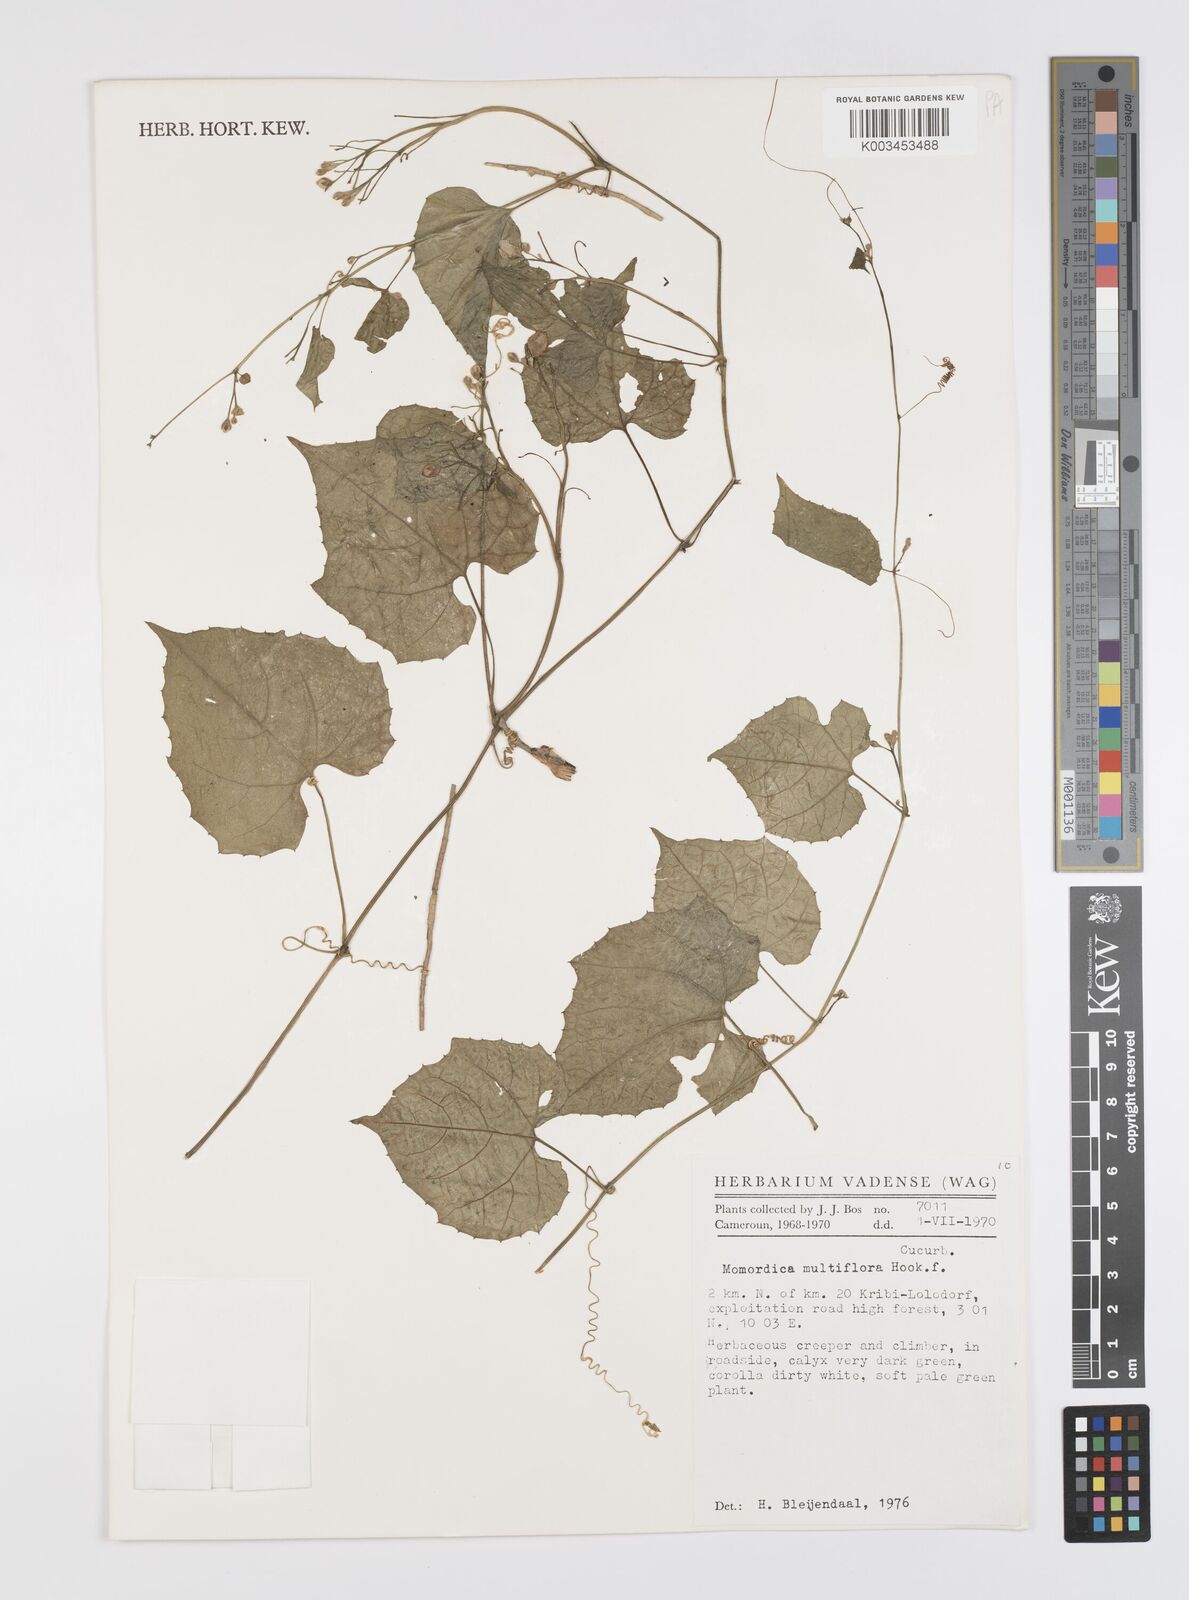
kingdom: Plantae
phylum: Tracheophyta
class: Magnoliopsida
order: Cucurbitales
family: Cucurbitaceae
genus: Momordica
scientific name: Momordica multiflora
